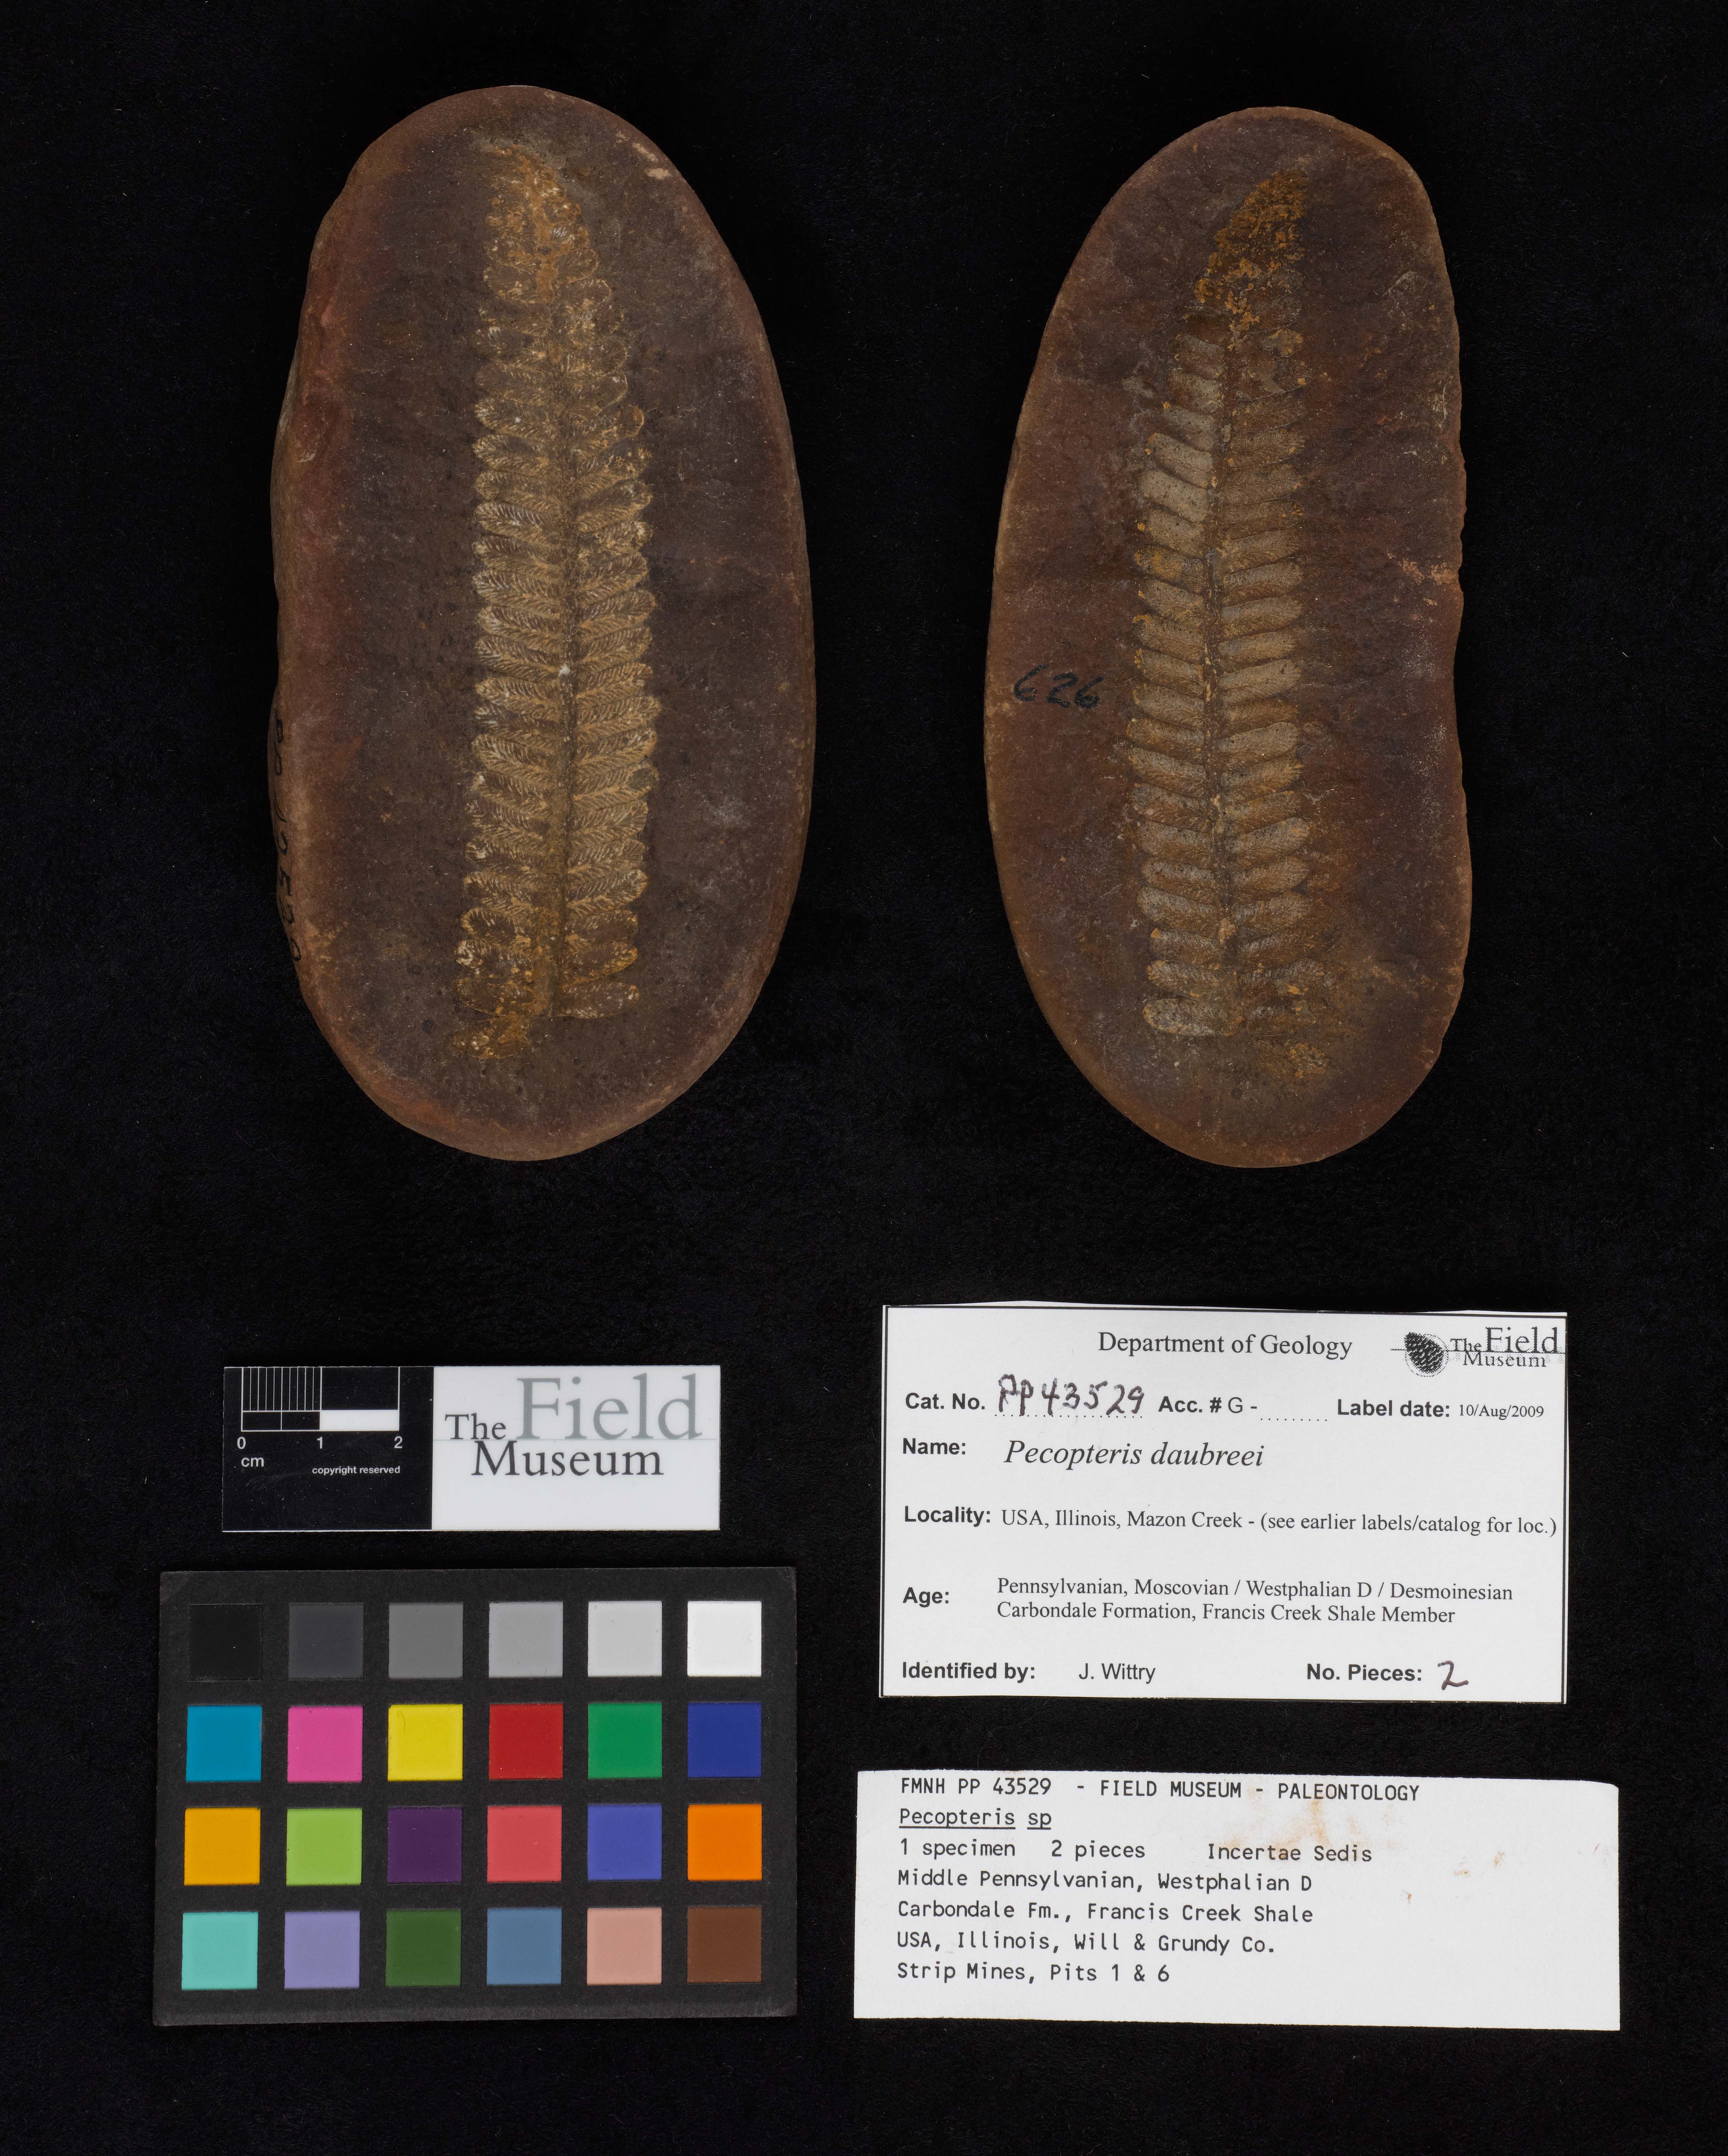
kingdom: Plantae
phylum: Tracheophyta
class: Polypodiopsida
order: Marattiales
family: Asterothecaceae
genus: Pecopteris
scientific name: Pecopteris
